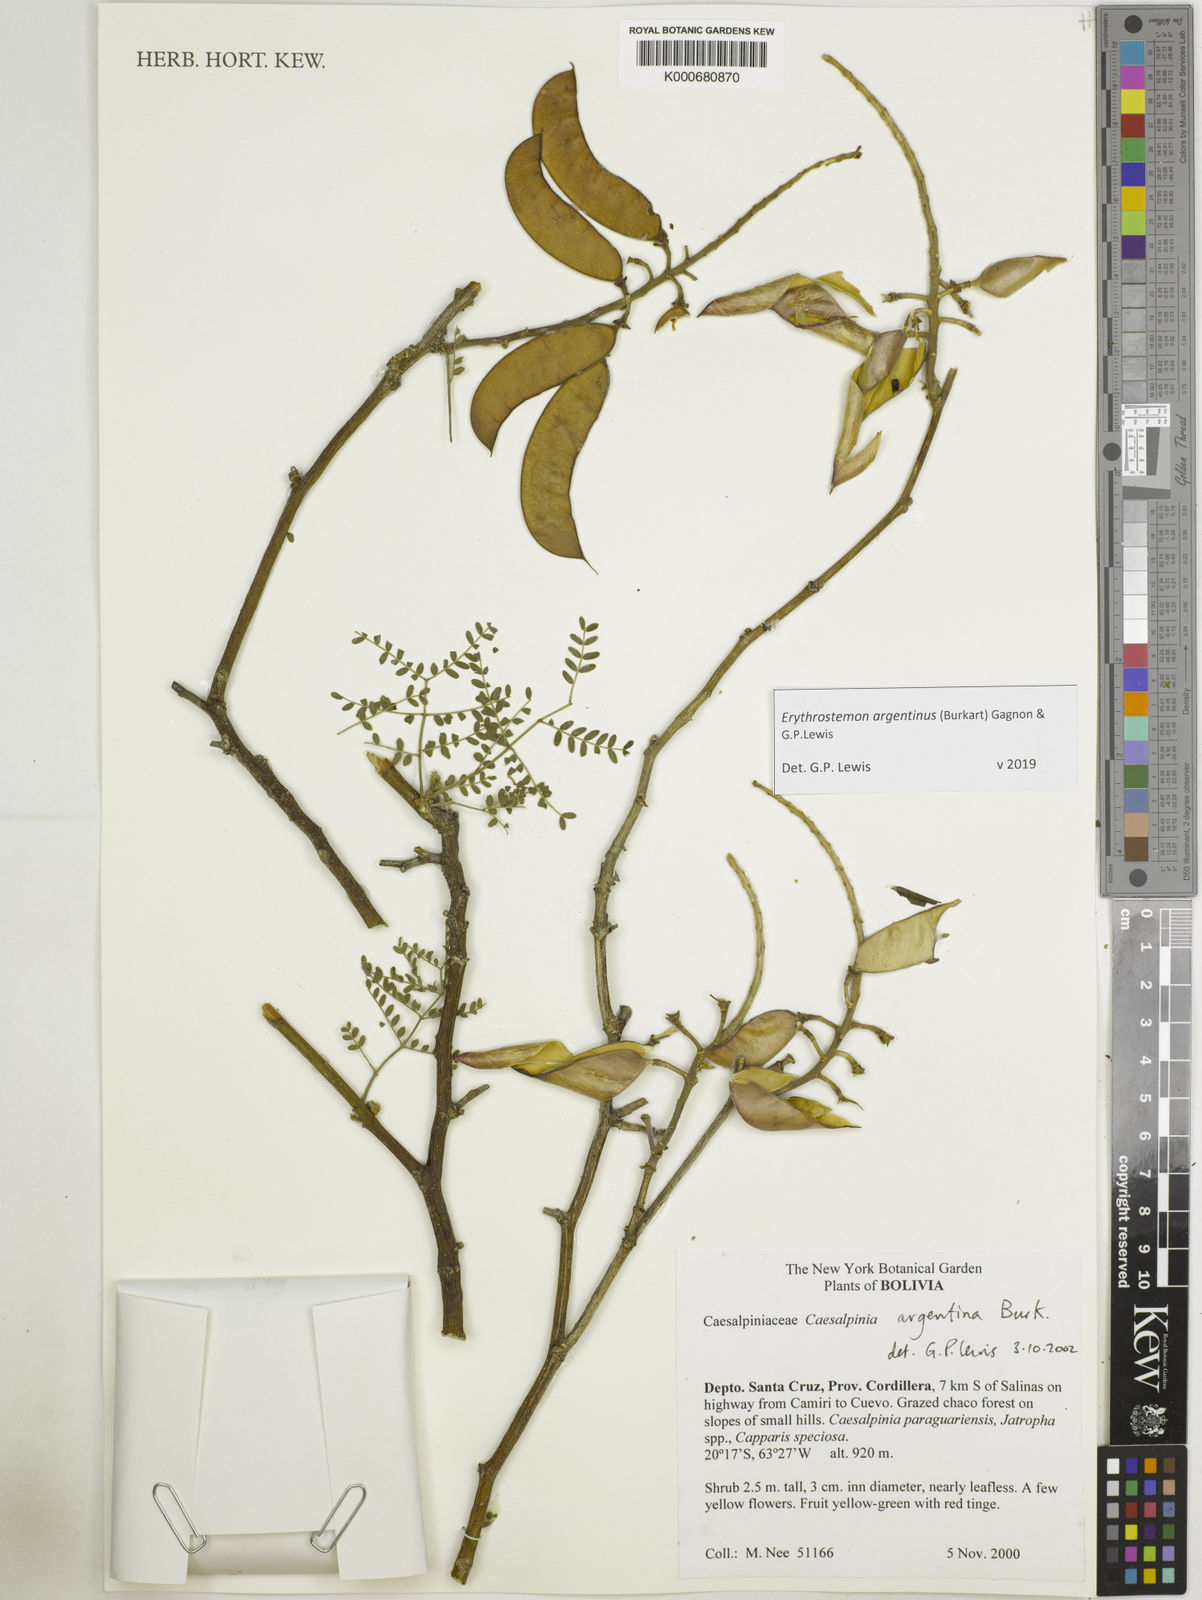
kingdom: Plantae
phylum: Tracheophyta
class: Magnoliopsida
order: Fabales
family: Fabaceae
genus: Erythrostemon
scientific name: Erythrostemon argentinus
